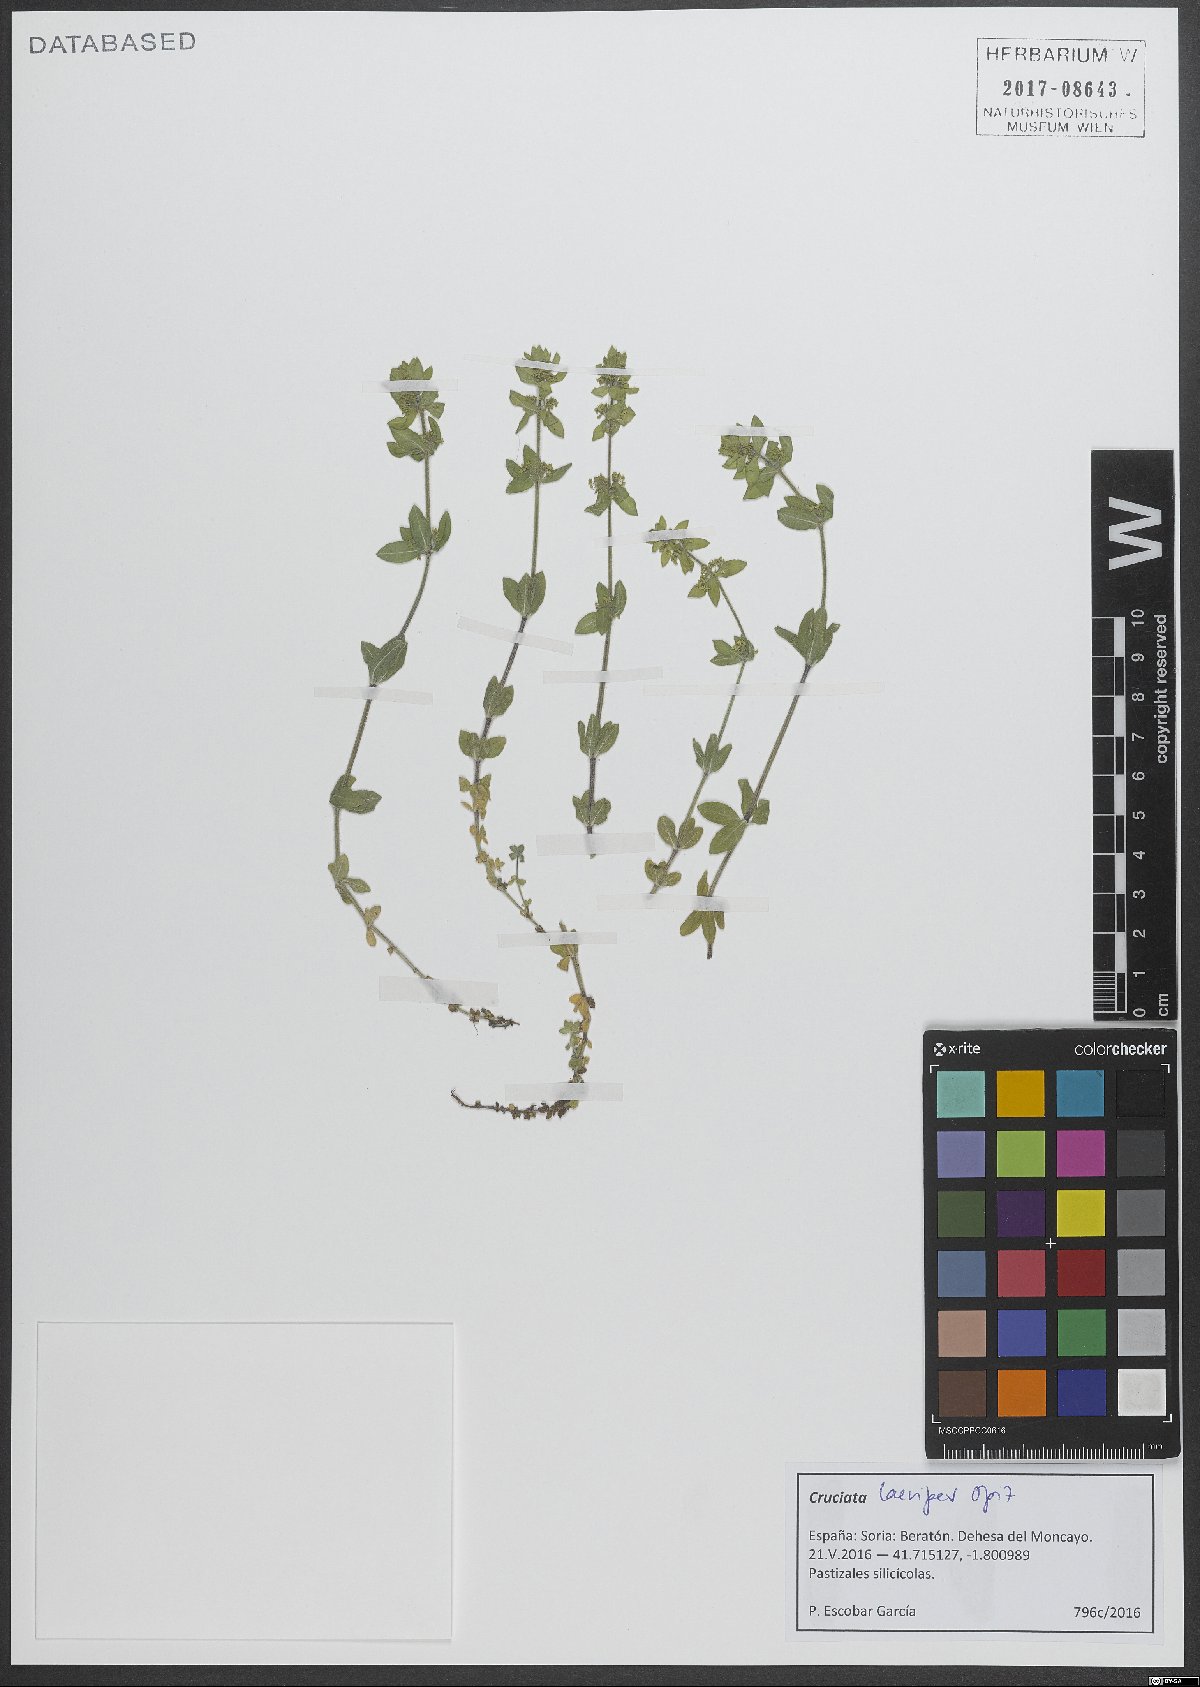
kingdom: Plantae
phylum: Tracheophyta
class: Magnoliopsida
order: Gentianales
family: Rubiaceae
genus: Cruciata
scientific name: Cruciata laevipes
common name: Crosswort
